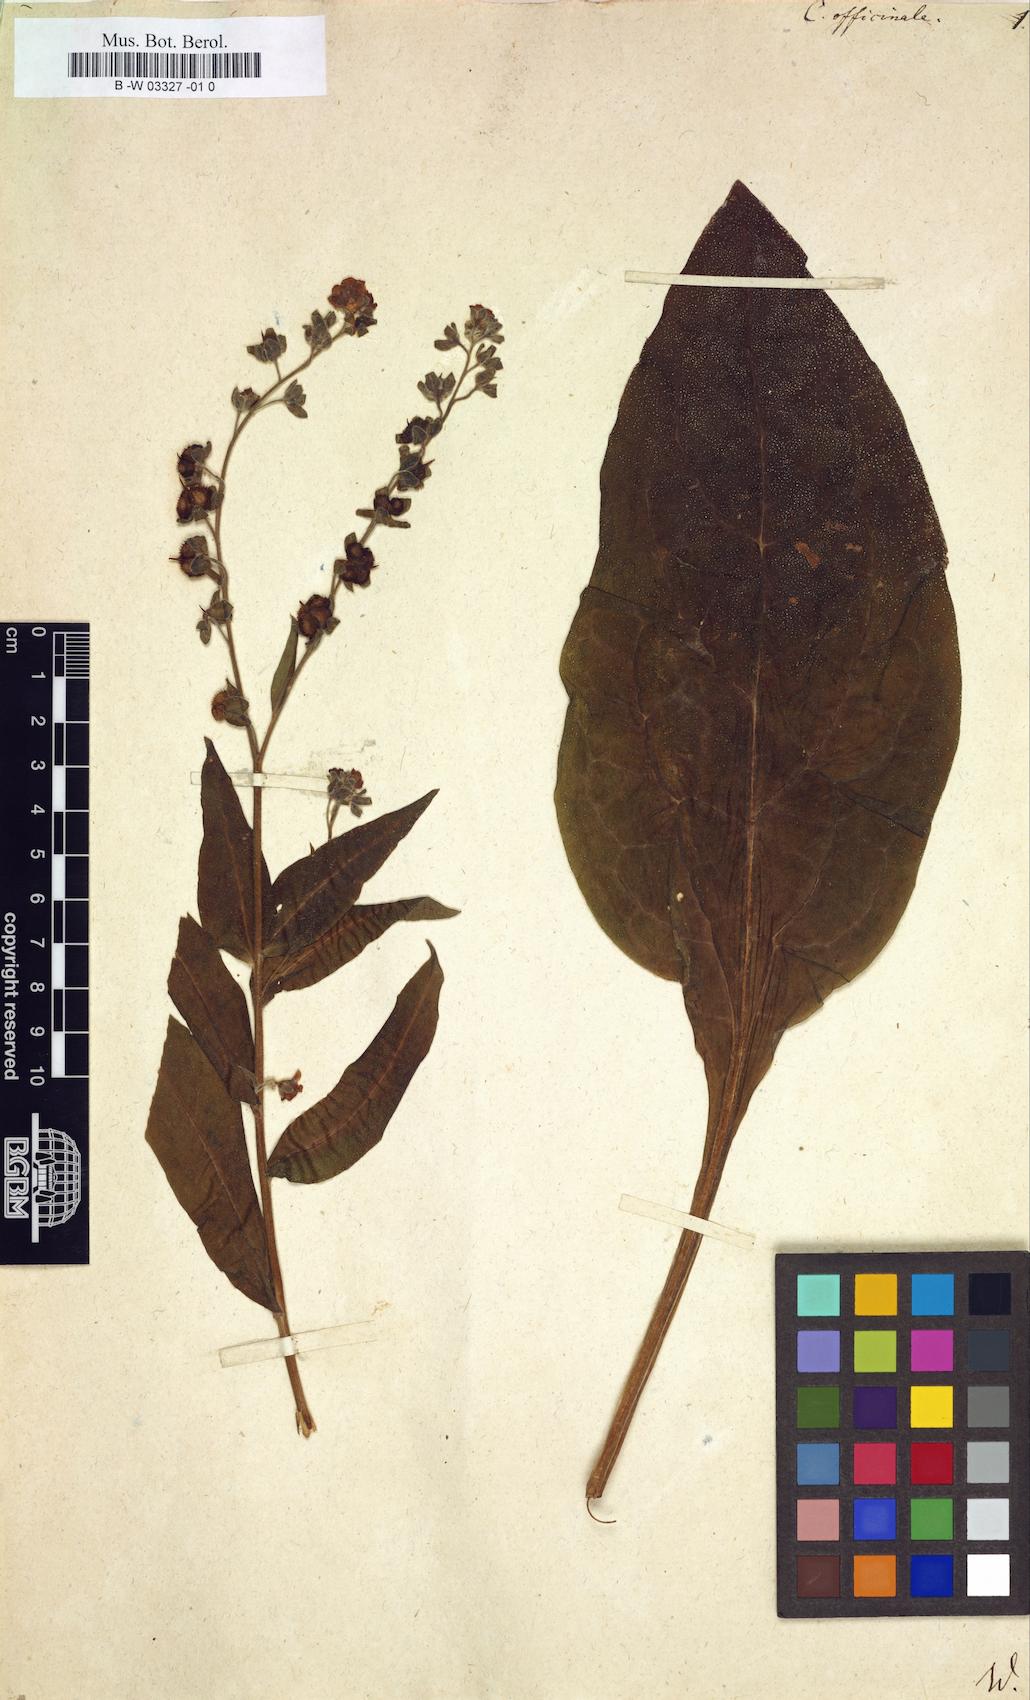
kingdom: Plantae
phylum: Tracheophyta
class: Magnoliopsida
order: Boraginales
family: Boraginaceae
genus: Cynoglossum
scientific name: Cynoglossum officinale
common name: Hound's-tongue
